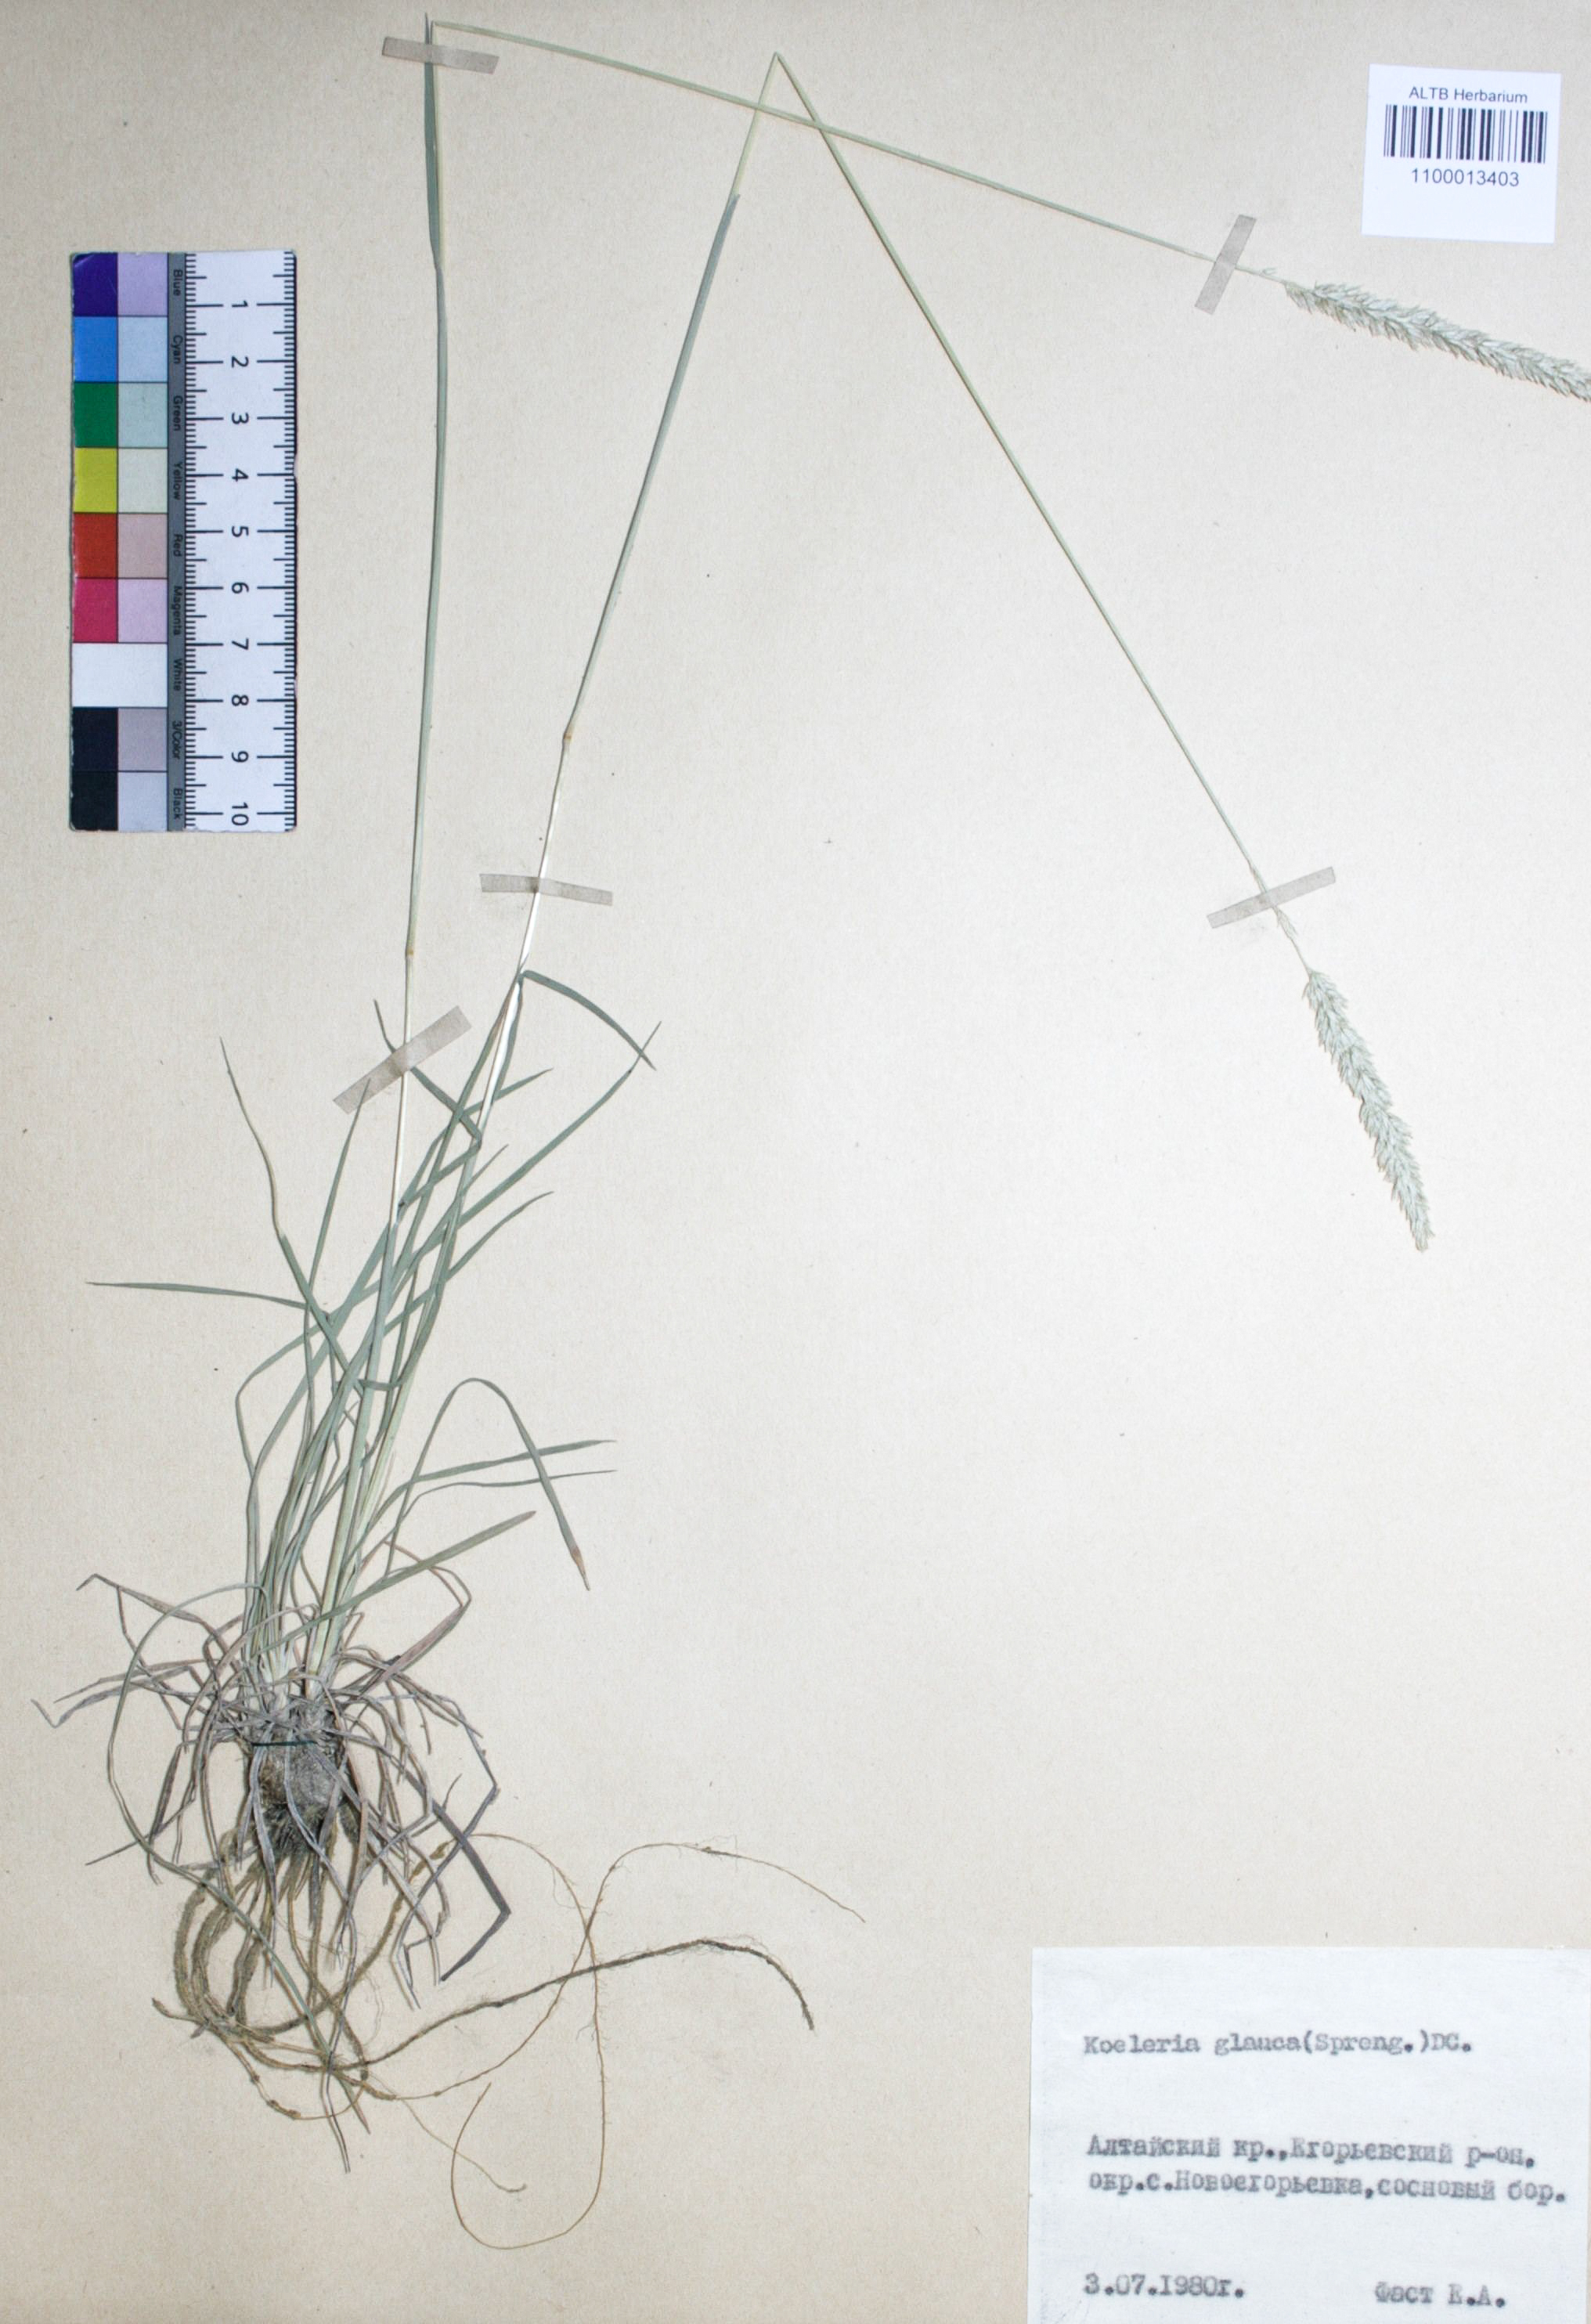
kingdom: Plantae
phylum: Tracheophyta
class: Liliopsida
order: Poales
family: Poaceae
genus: Koeleria
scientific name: Koeleria glauca
